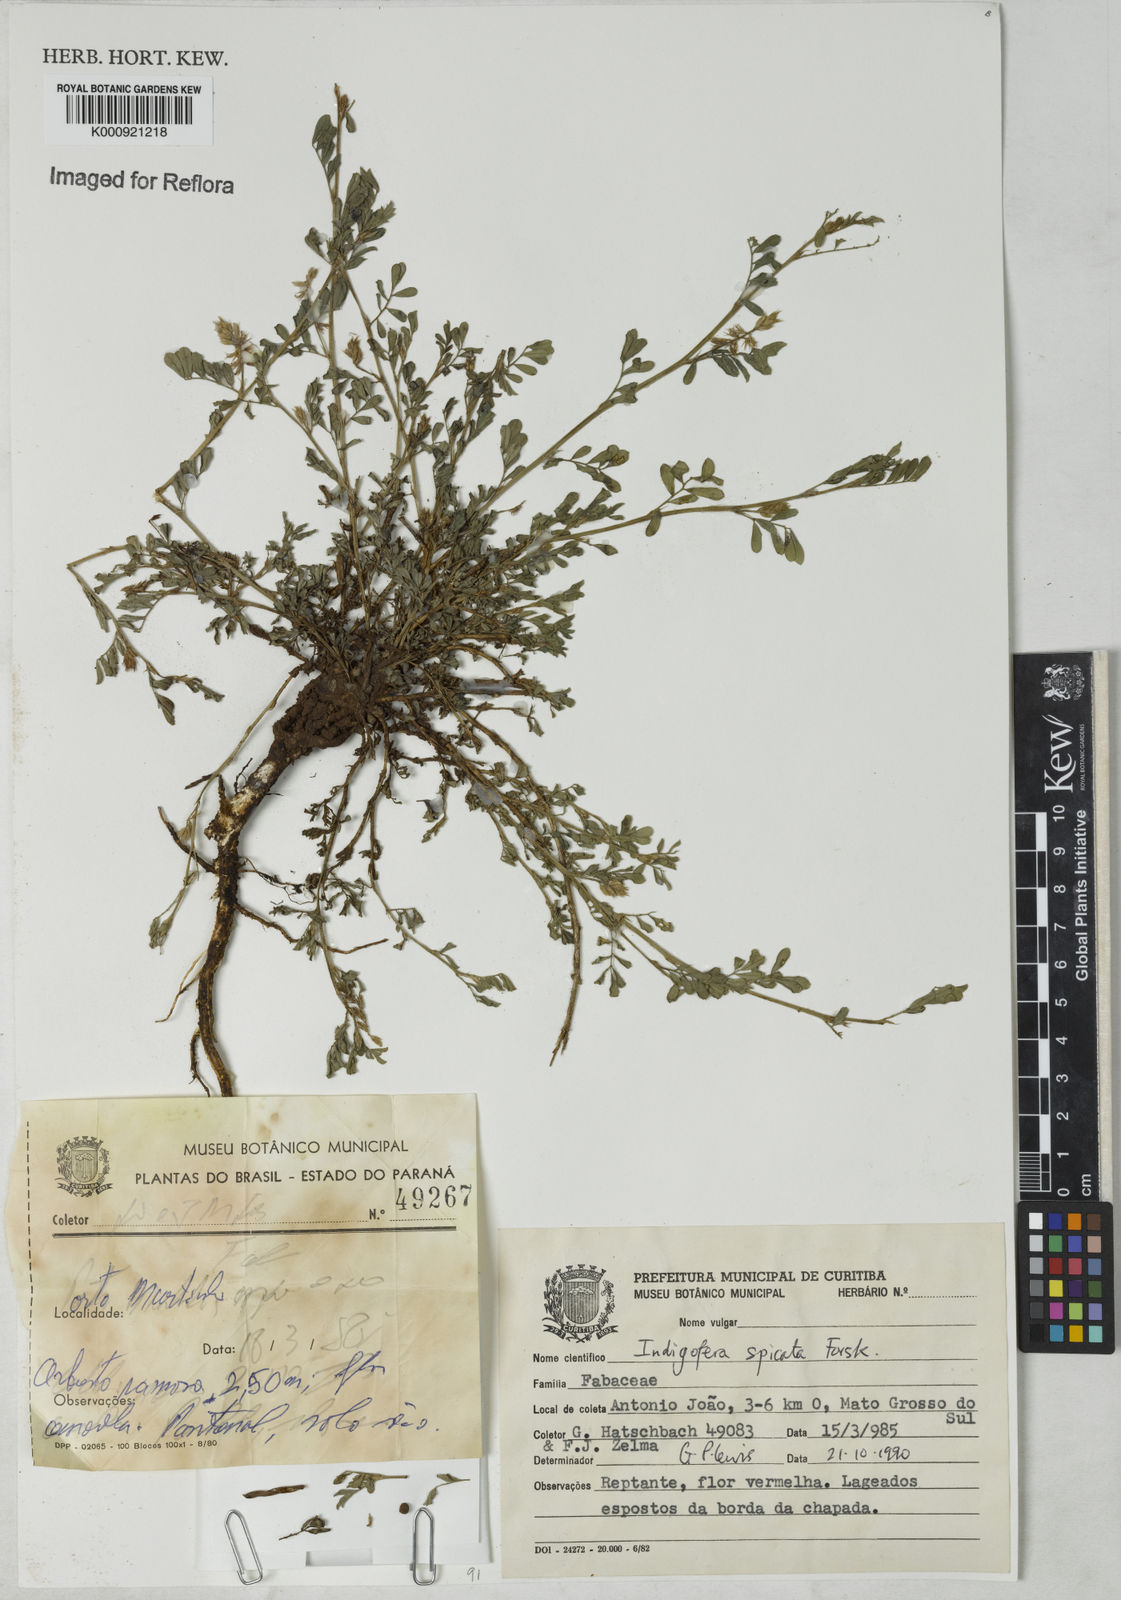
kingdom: Plantae
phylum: Tracheophyta
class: Magnoliopsida
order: Fabales
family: Fabaceae
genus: Indigofera
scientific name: Indigofera hendecaphylla
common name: Trailing indigo
